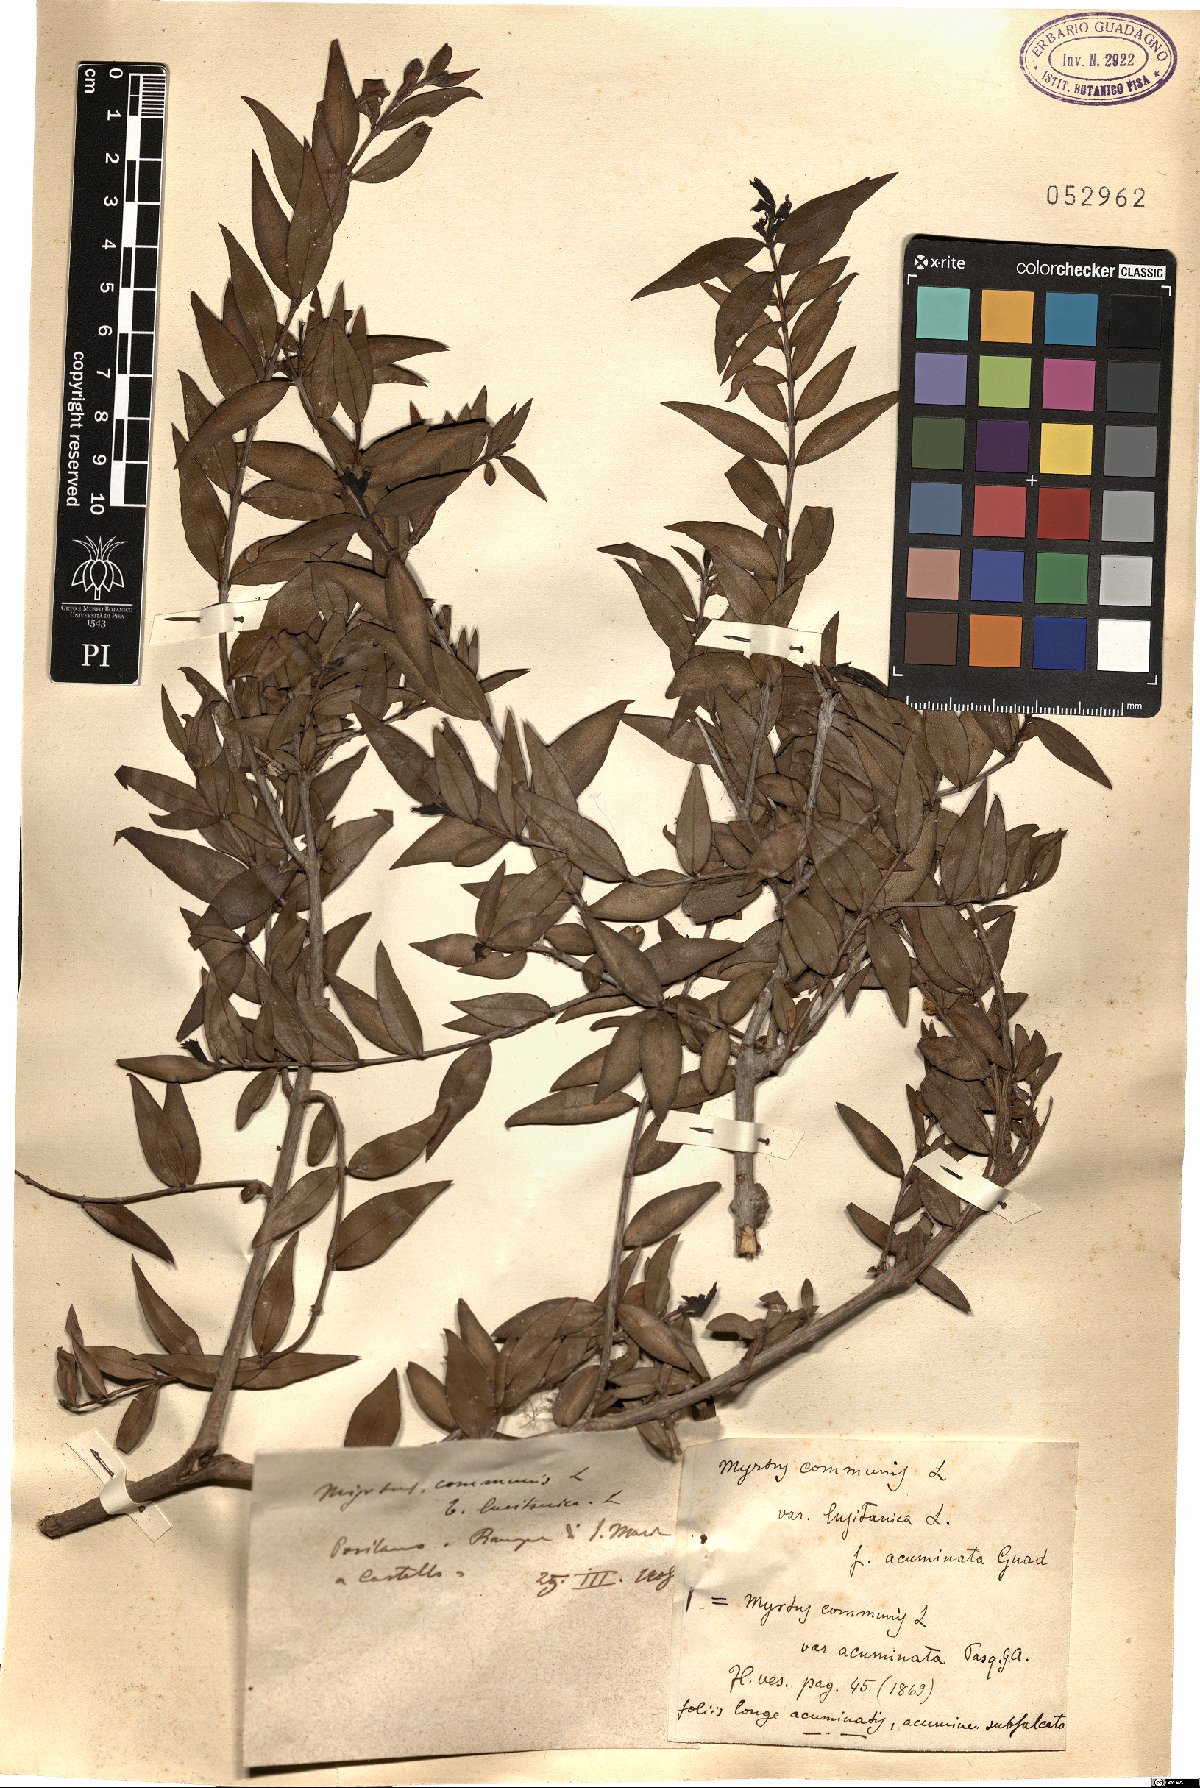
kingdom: Plantae
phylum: Tracheophyta
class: Magnoliopsida
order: Myrtales
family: Myrtaceae
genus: Myrtus
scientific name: Myrtus communis
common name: Myrtle
